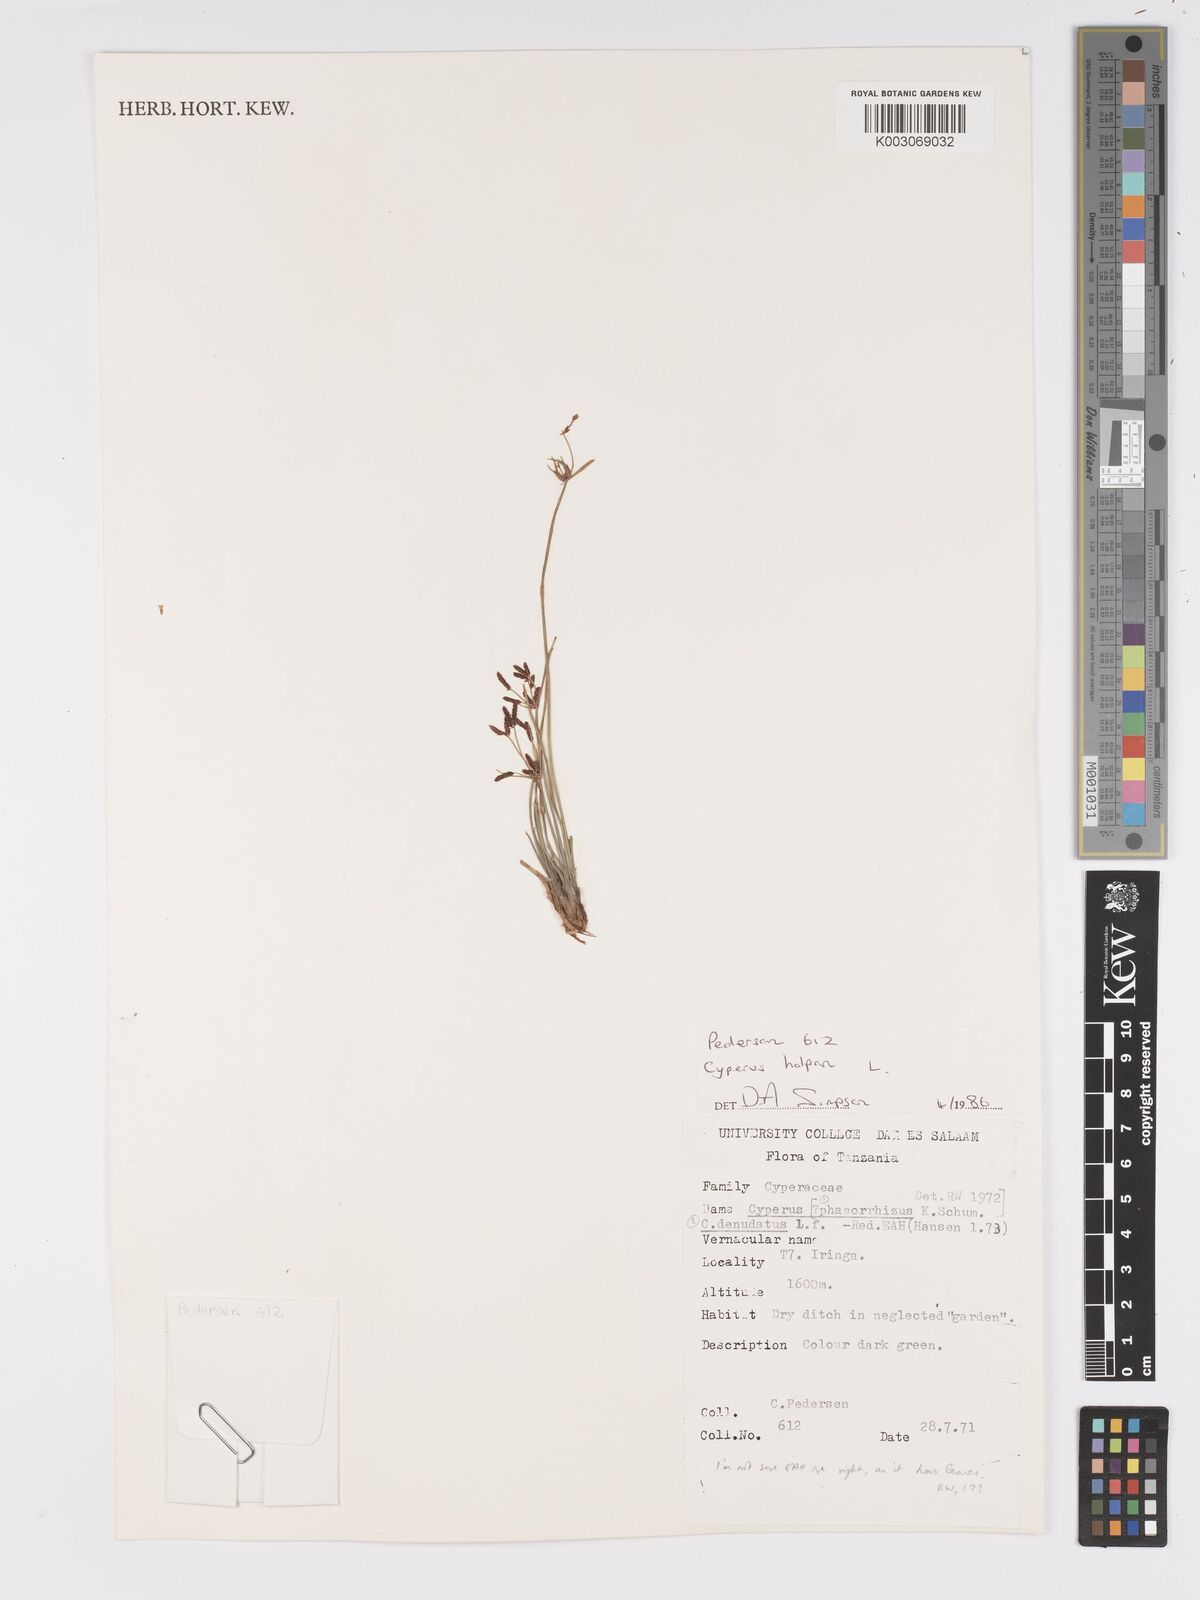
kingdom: Plantae
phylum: Tracheophyta
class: Liliopsida
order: Poales
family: Cyperaceae
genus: Cyperus
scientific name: Cyperus haspan
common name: Haspan flatsedge
